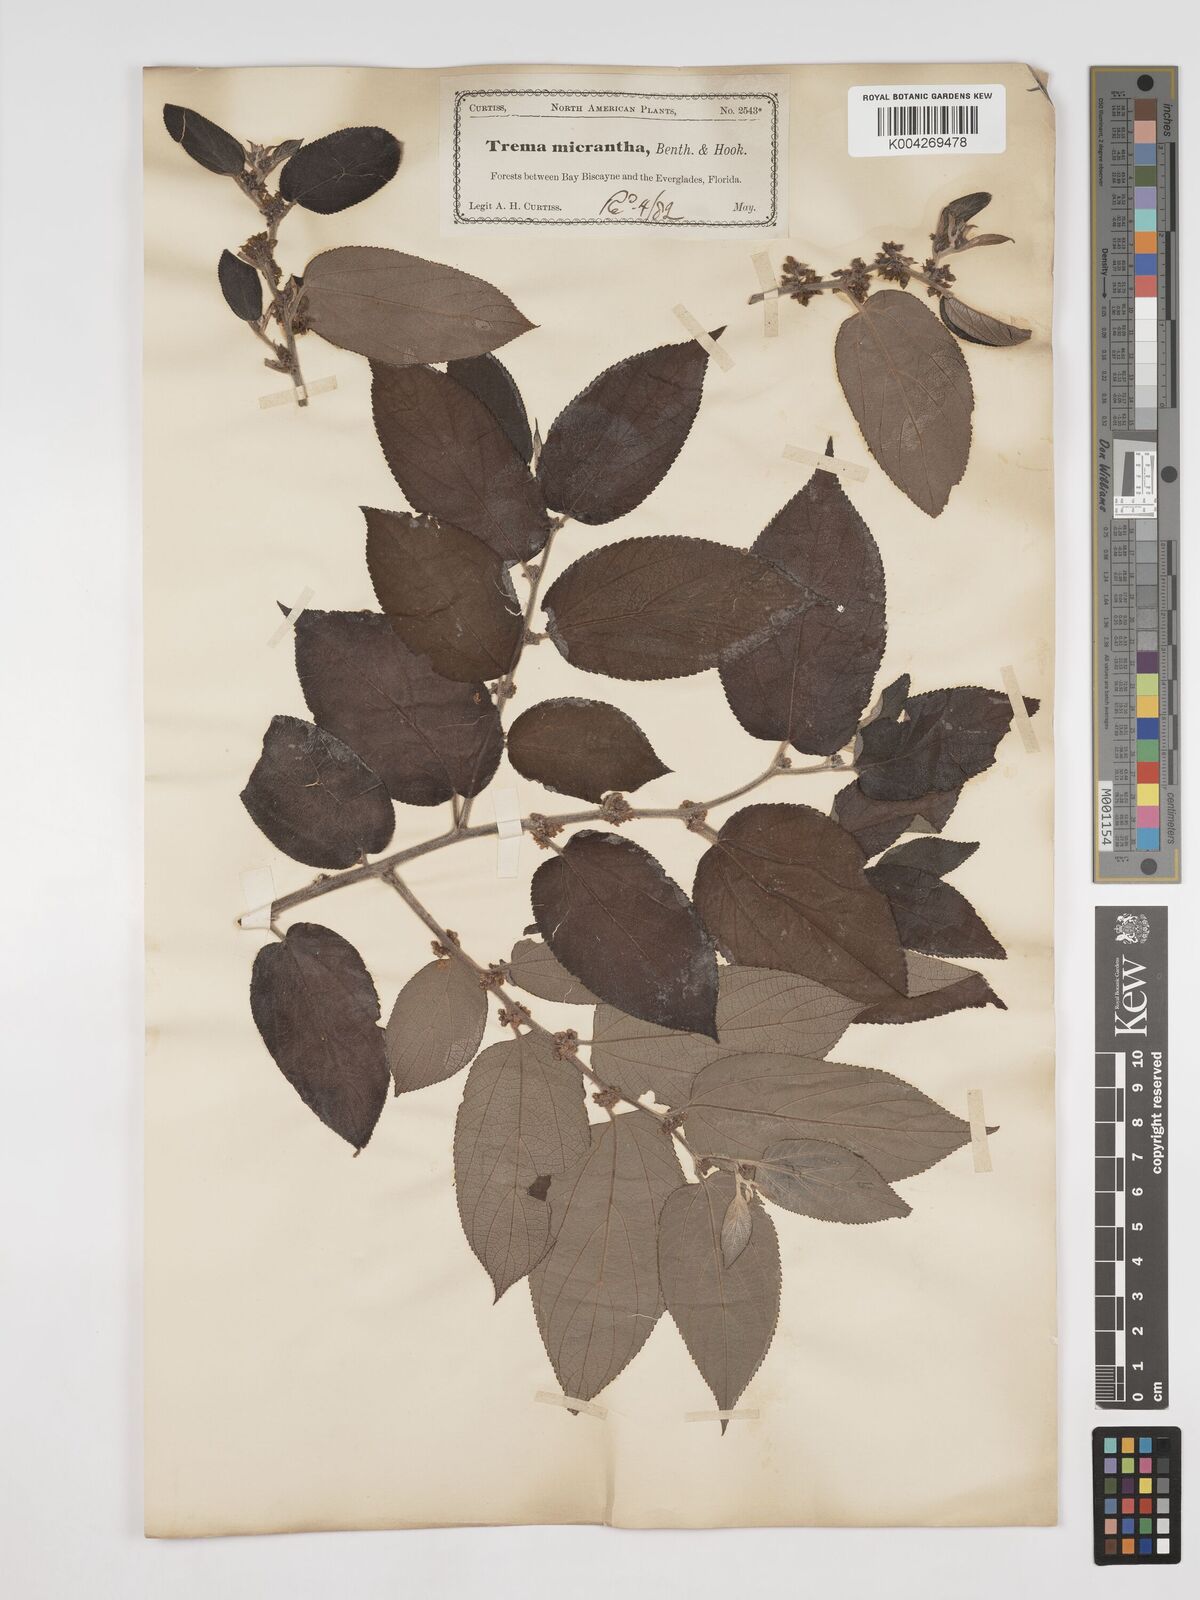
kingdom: Plantae
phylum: Tracheophyta
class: Magnoliopsida
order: Rosales
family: Cannabaceae
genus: Trema
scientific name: Trema micranthum
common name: Jamaican nettletree
